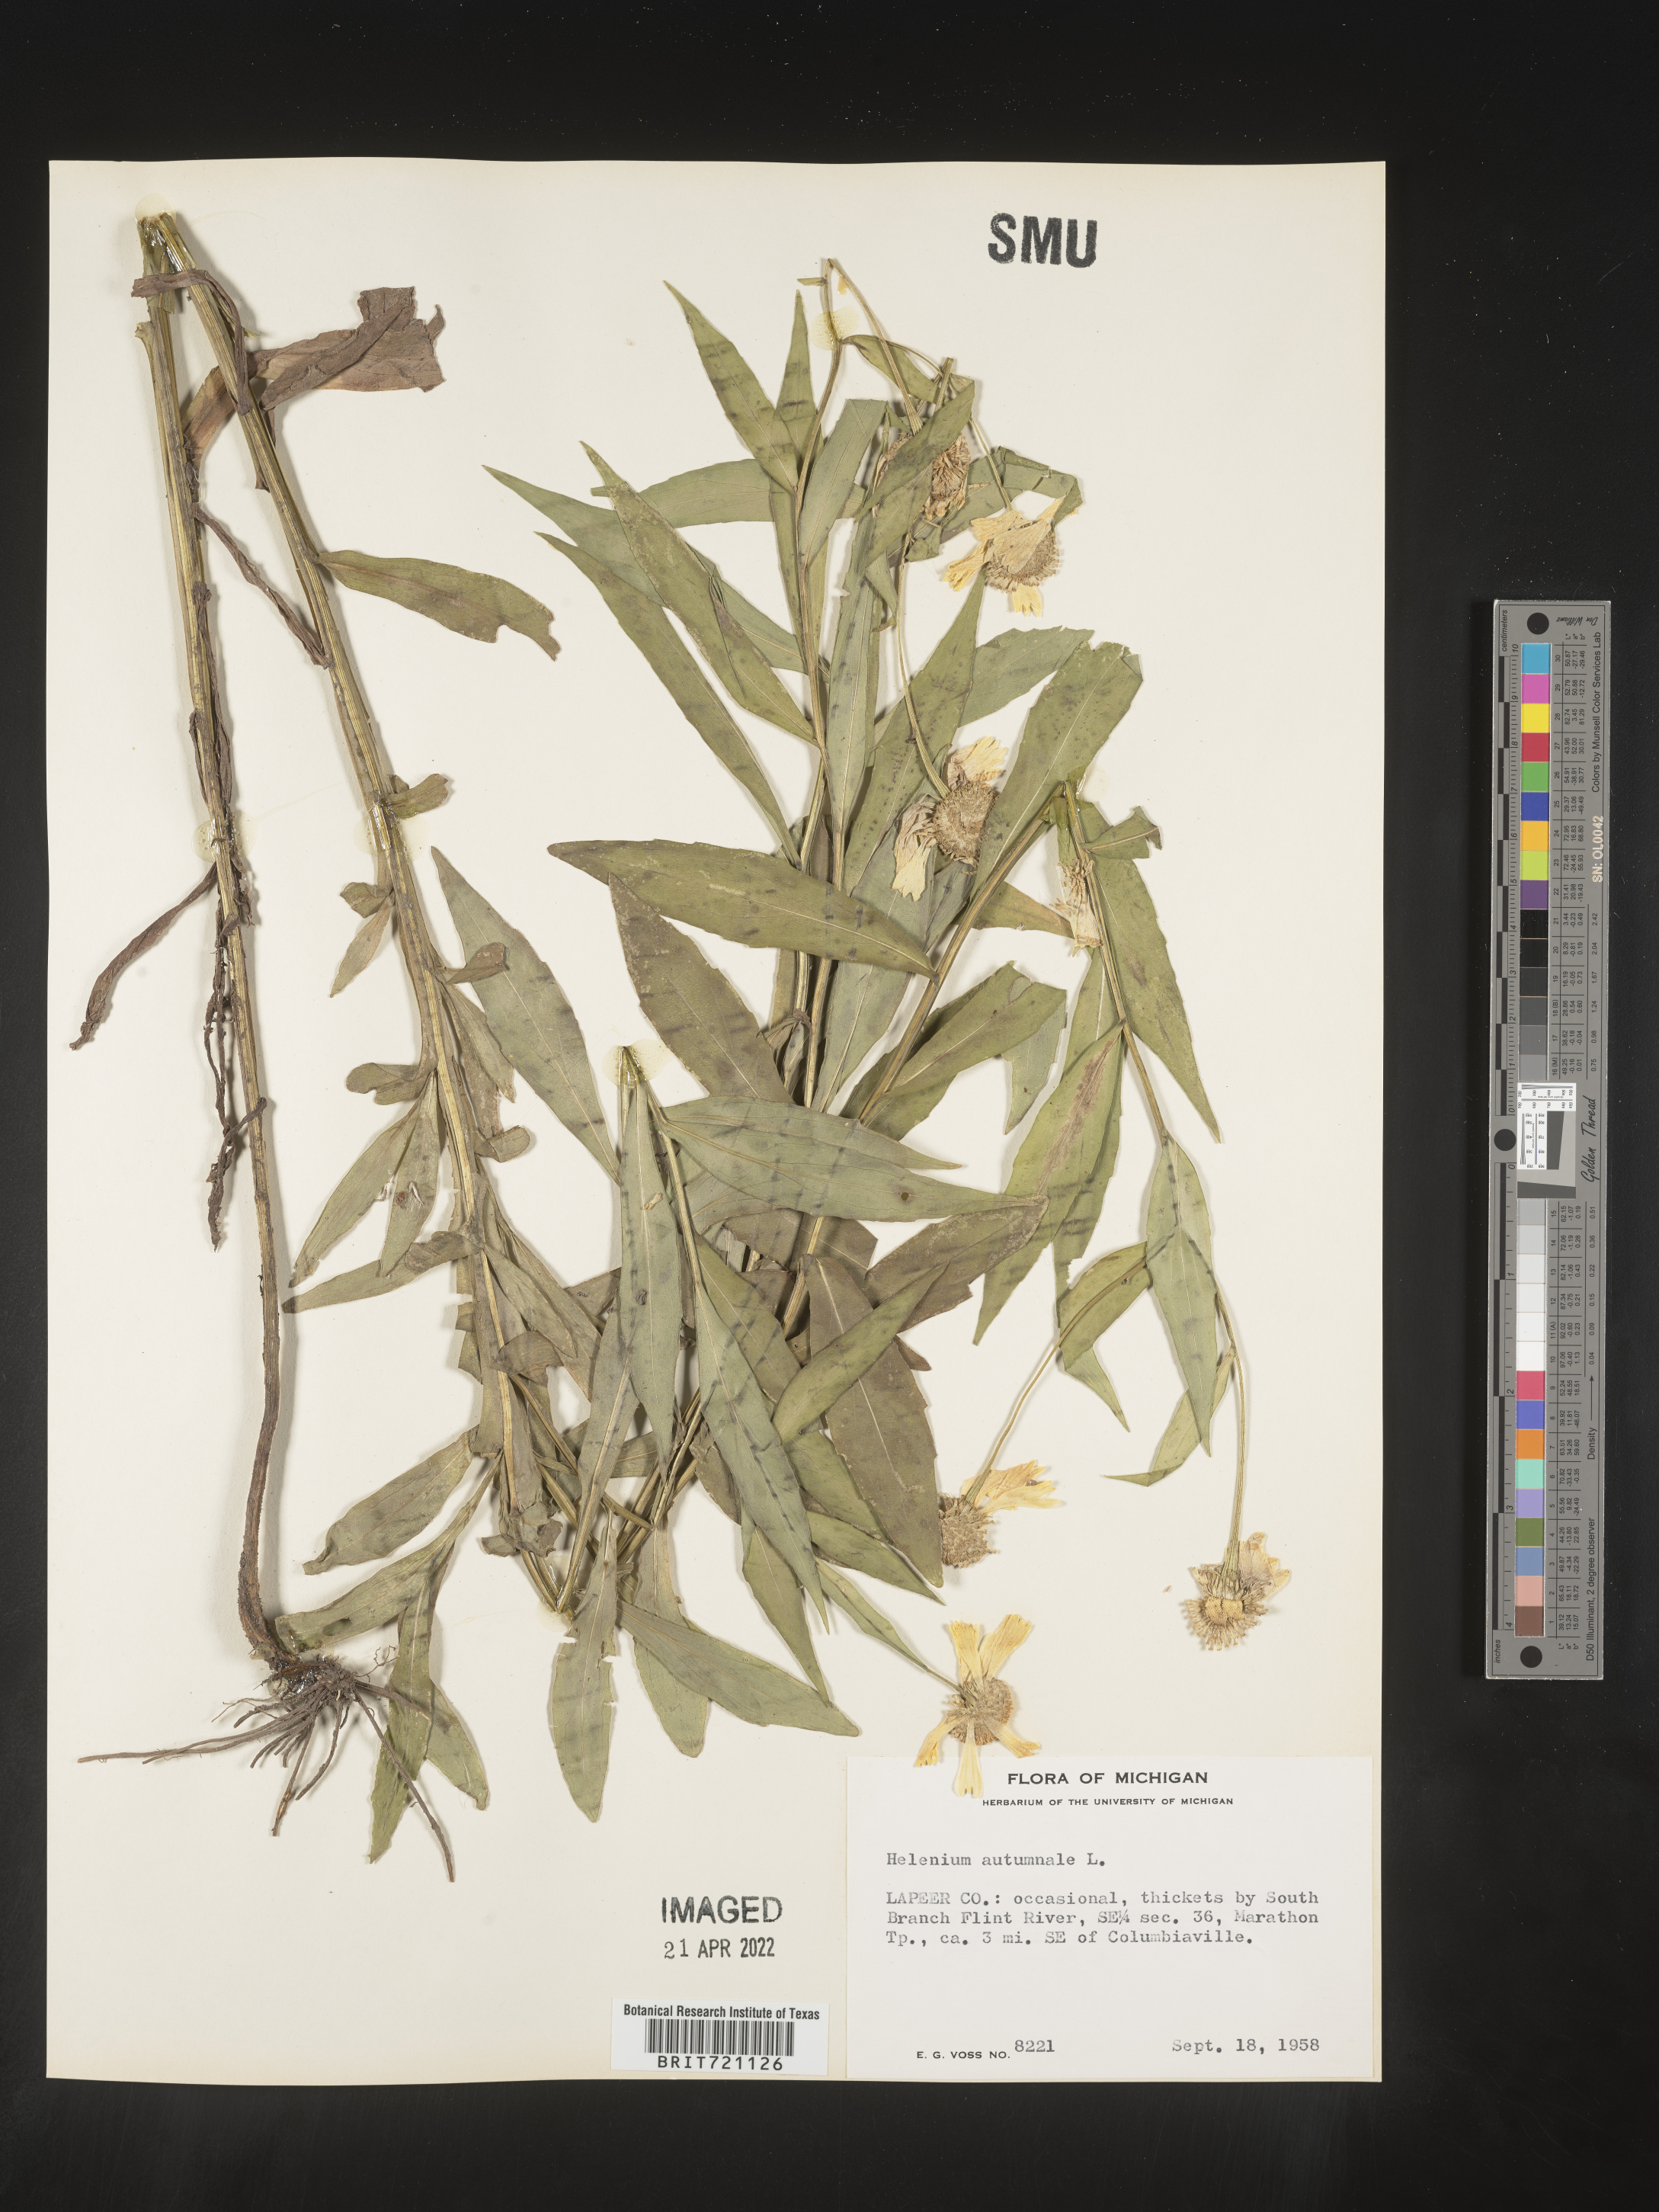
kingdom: Plantae
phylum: Tracheophyta
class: Magnoliopsida
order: Asterales
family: Asteraceae
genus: Helenium
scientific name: Helenium autumnale
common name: Sneezeweed
